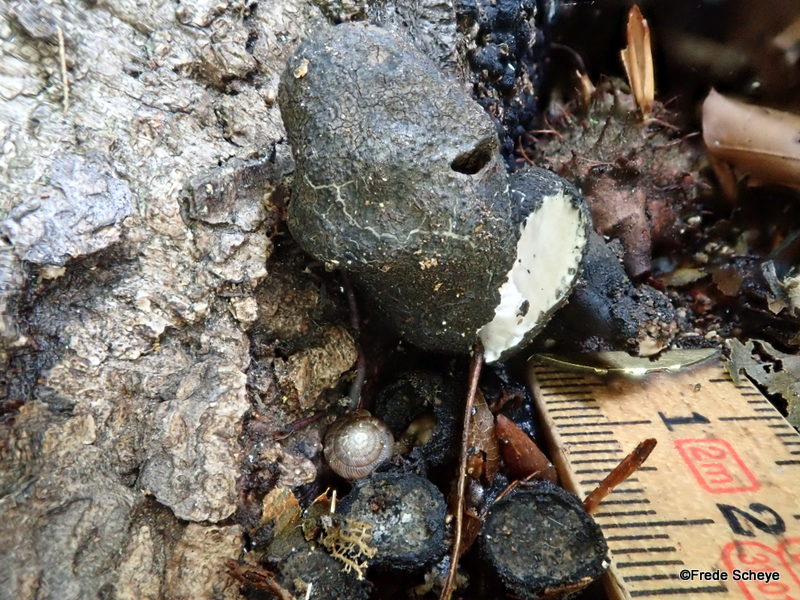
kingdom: Fungi
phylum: Ascomycota
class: Sordariomycetes
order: Xylariales
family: Xylariaceae
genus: Xylaria
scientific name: Xylaria polymorpha
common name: kølle-stødsvamp
